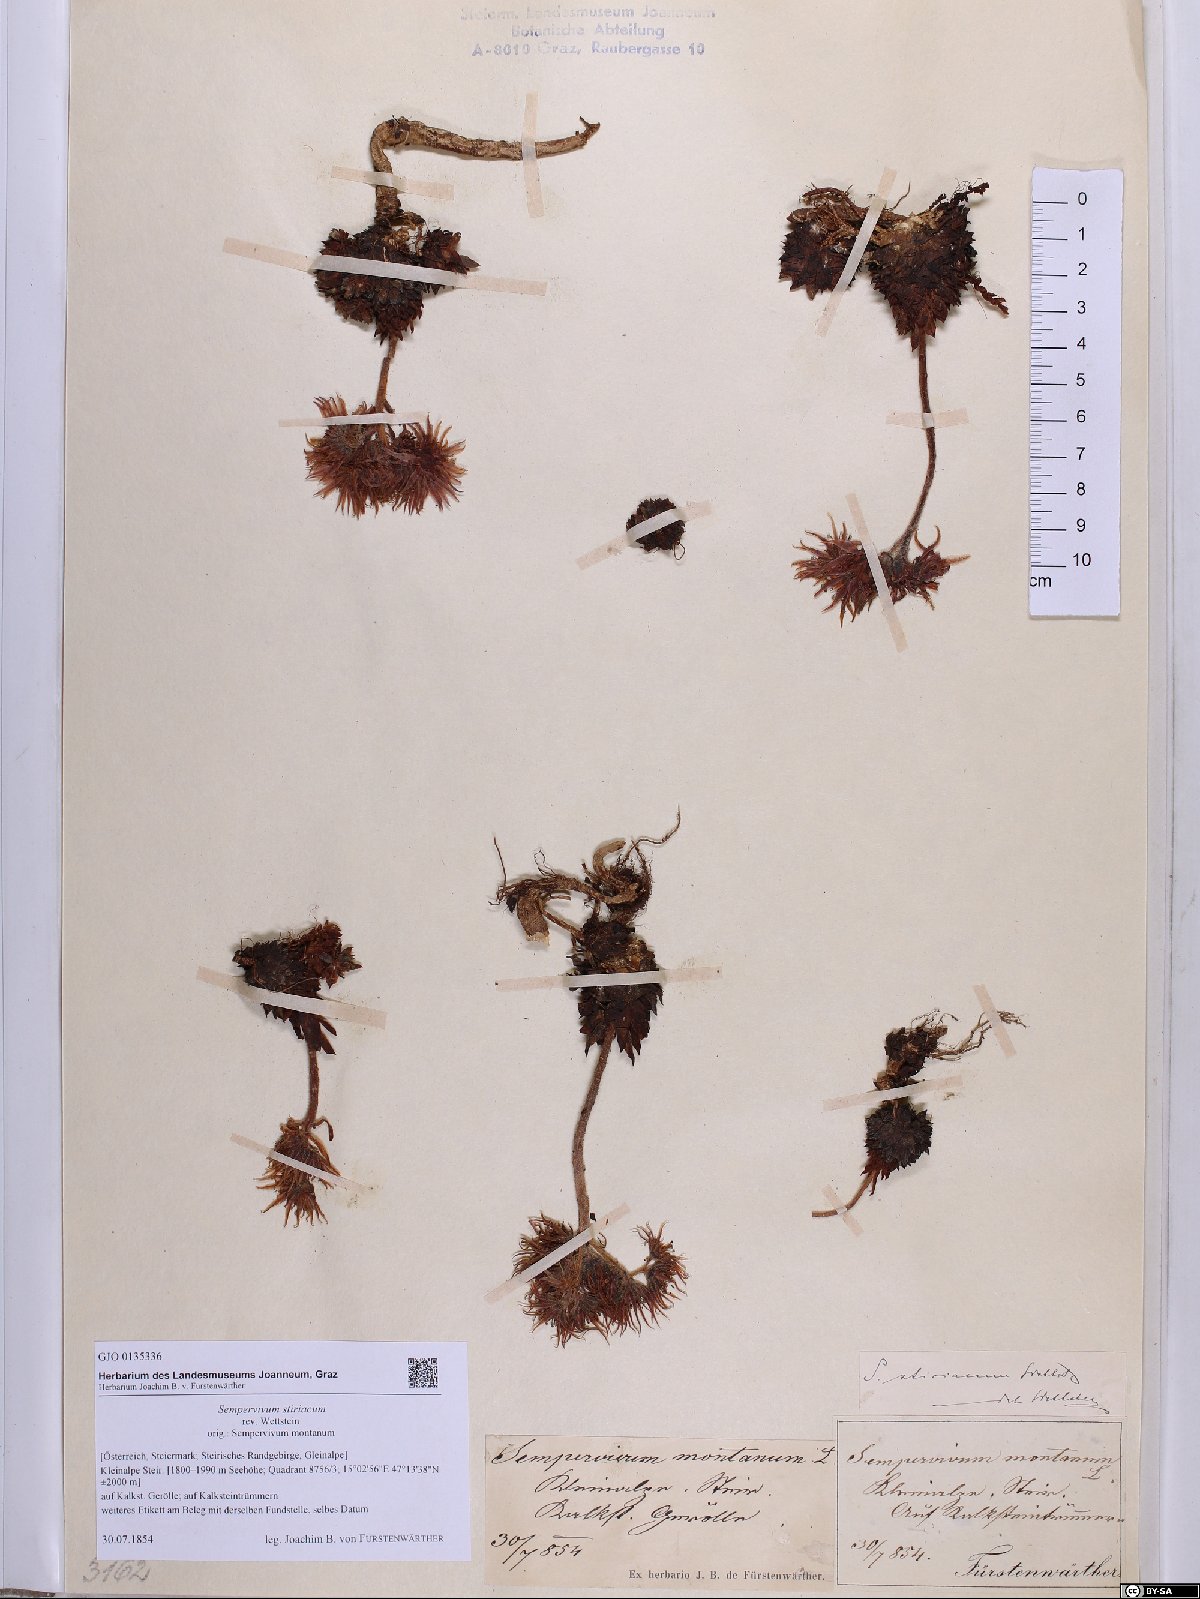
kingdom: Plantae
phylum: Tracheophyta
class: Magnoliopsida
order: Saxifragales
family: Crassulaceae
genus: Sempervivum
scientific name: Sempervivum montanum
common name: Mountain house-leek
